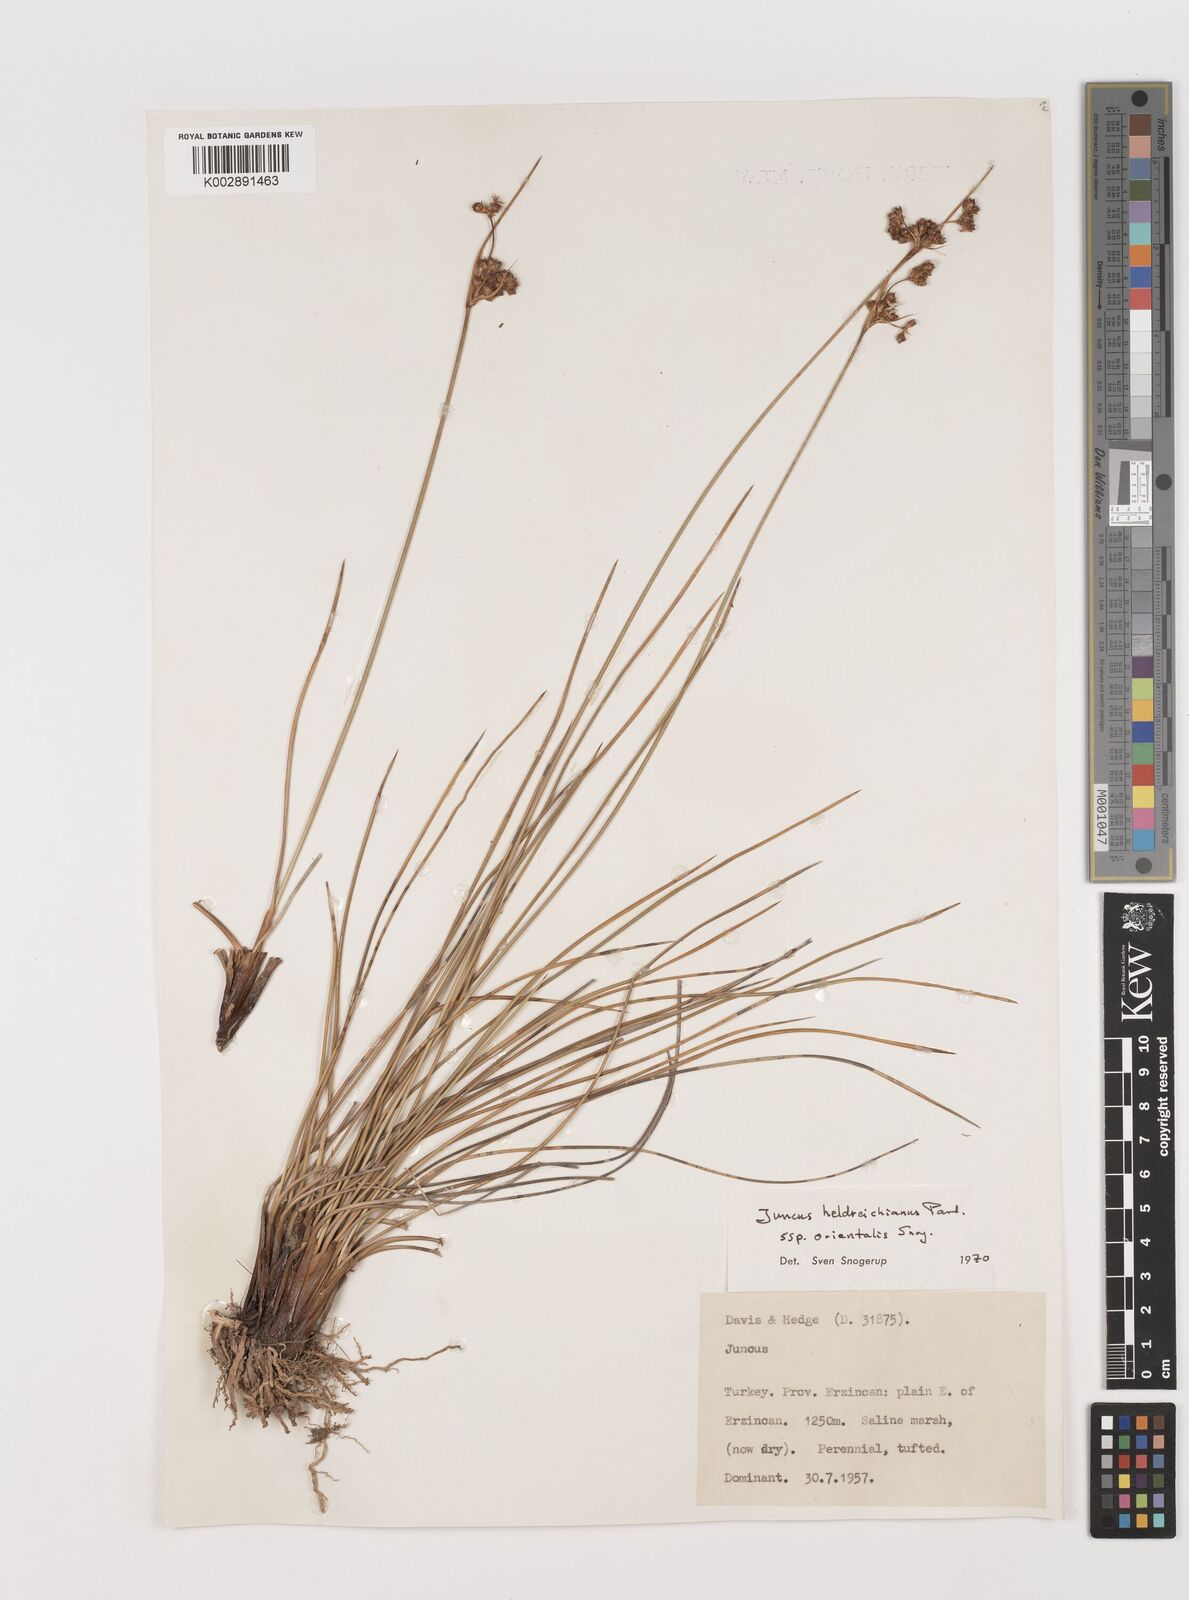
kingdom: Plantae
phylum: Tracheophyta
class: Liliopsida
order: Poales
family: Juncaceae
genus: Juncus
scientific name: Juncus heldreichianus
